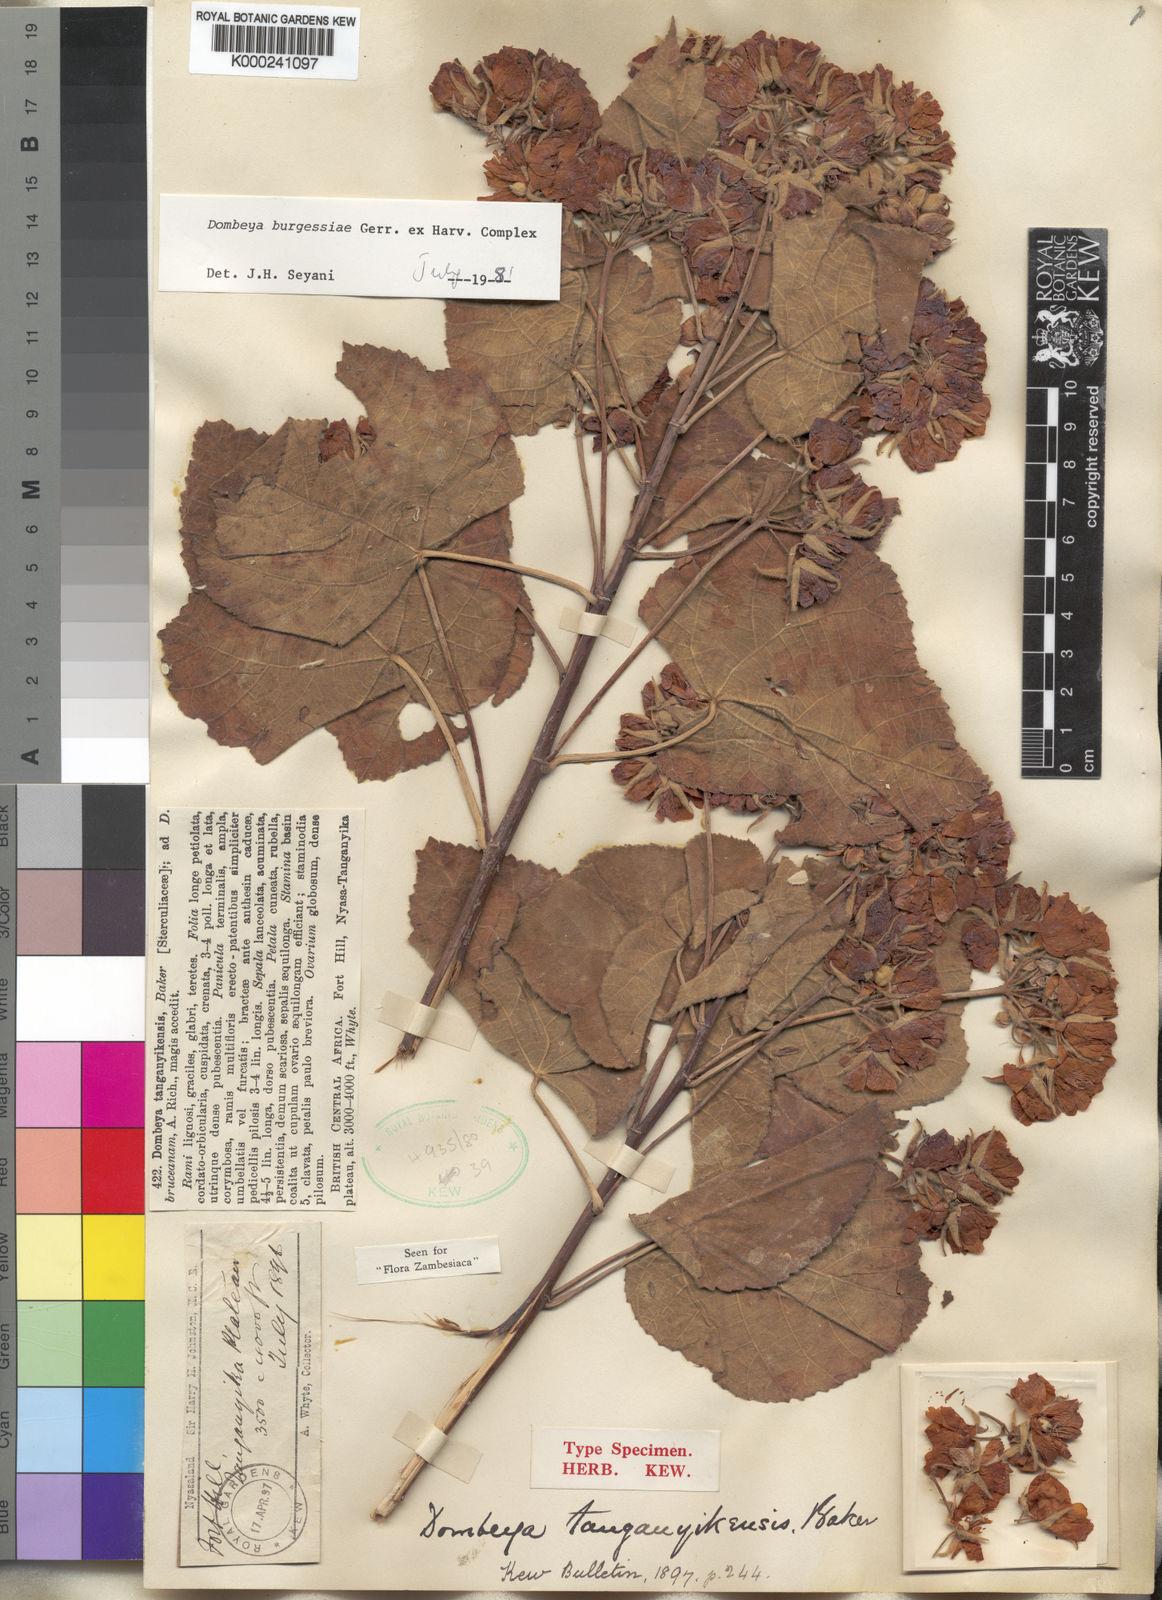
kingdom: Plantae
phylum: Tracheophyta
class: Magnoliopsida
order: Malvales
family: Malvaceae
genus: Dombeya
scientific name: Dombeya burgessiae
